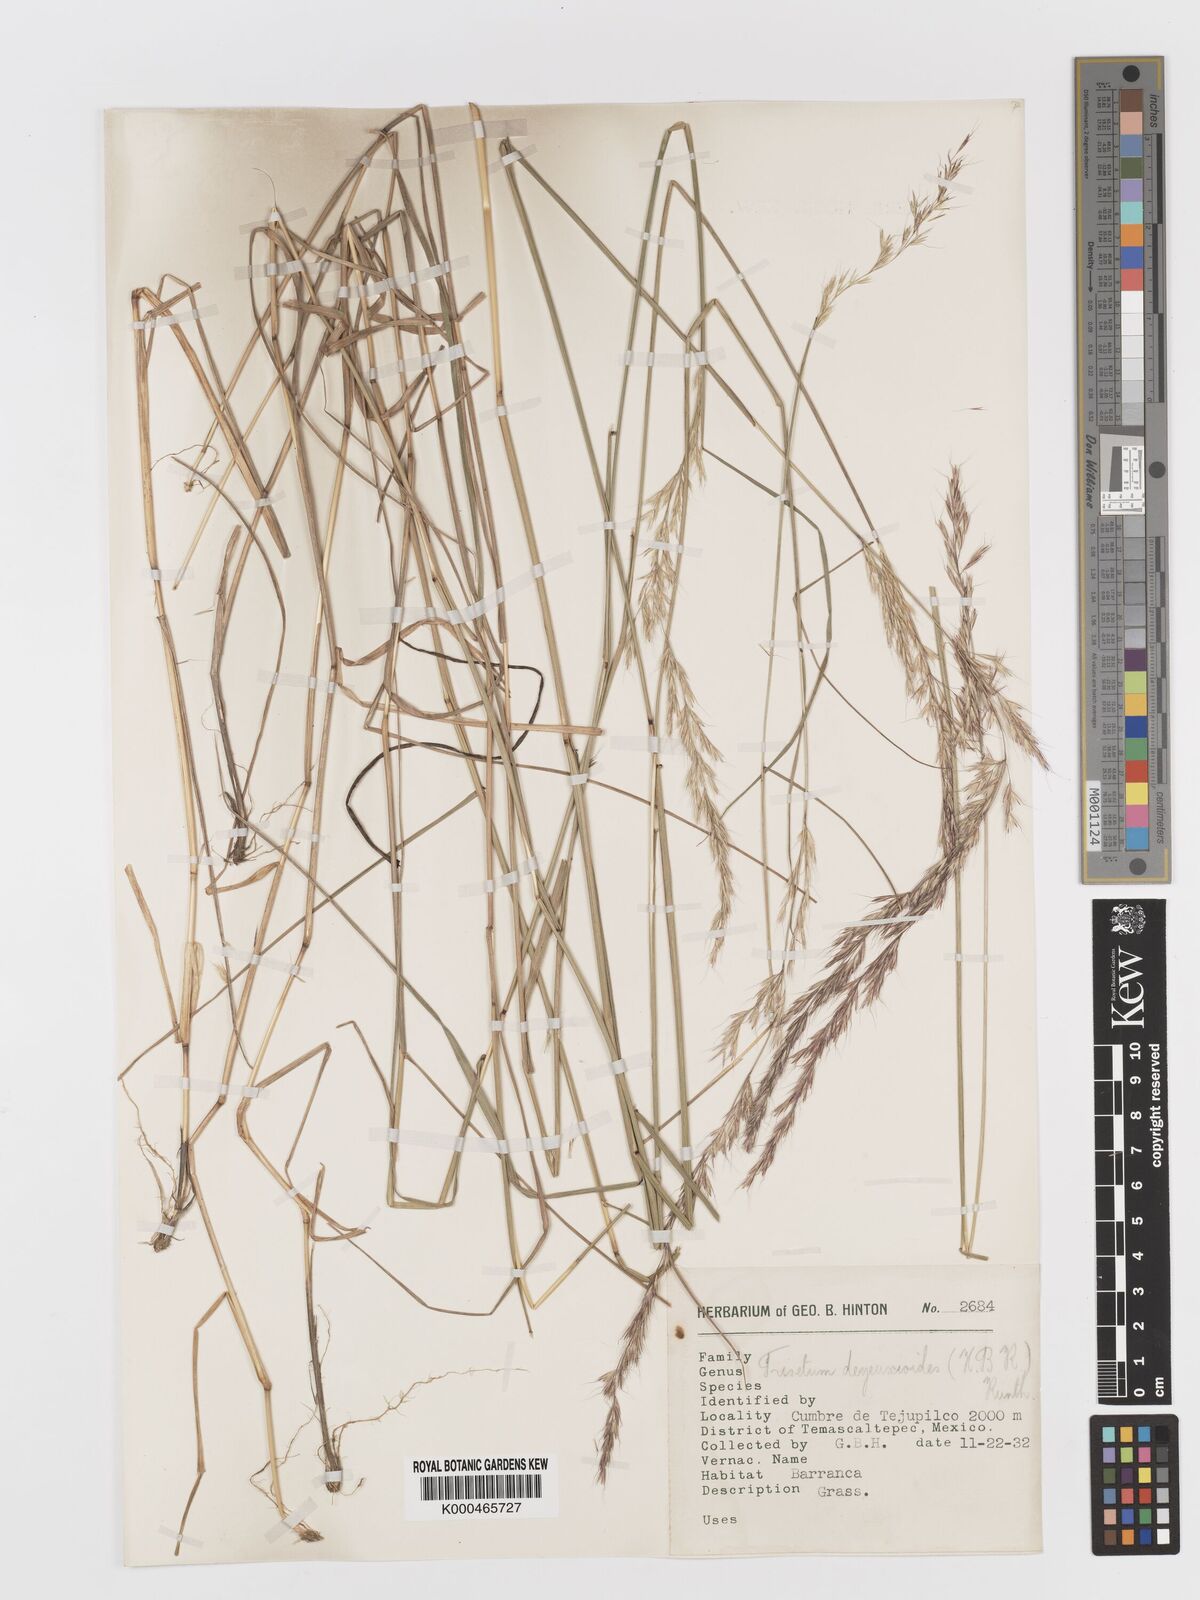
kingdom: Plantae
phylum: Tracheophyta
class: Liliopsida
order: Poales
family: Poaceae
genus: Peyritschia
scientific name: Peyritschia deyeuxioides
